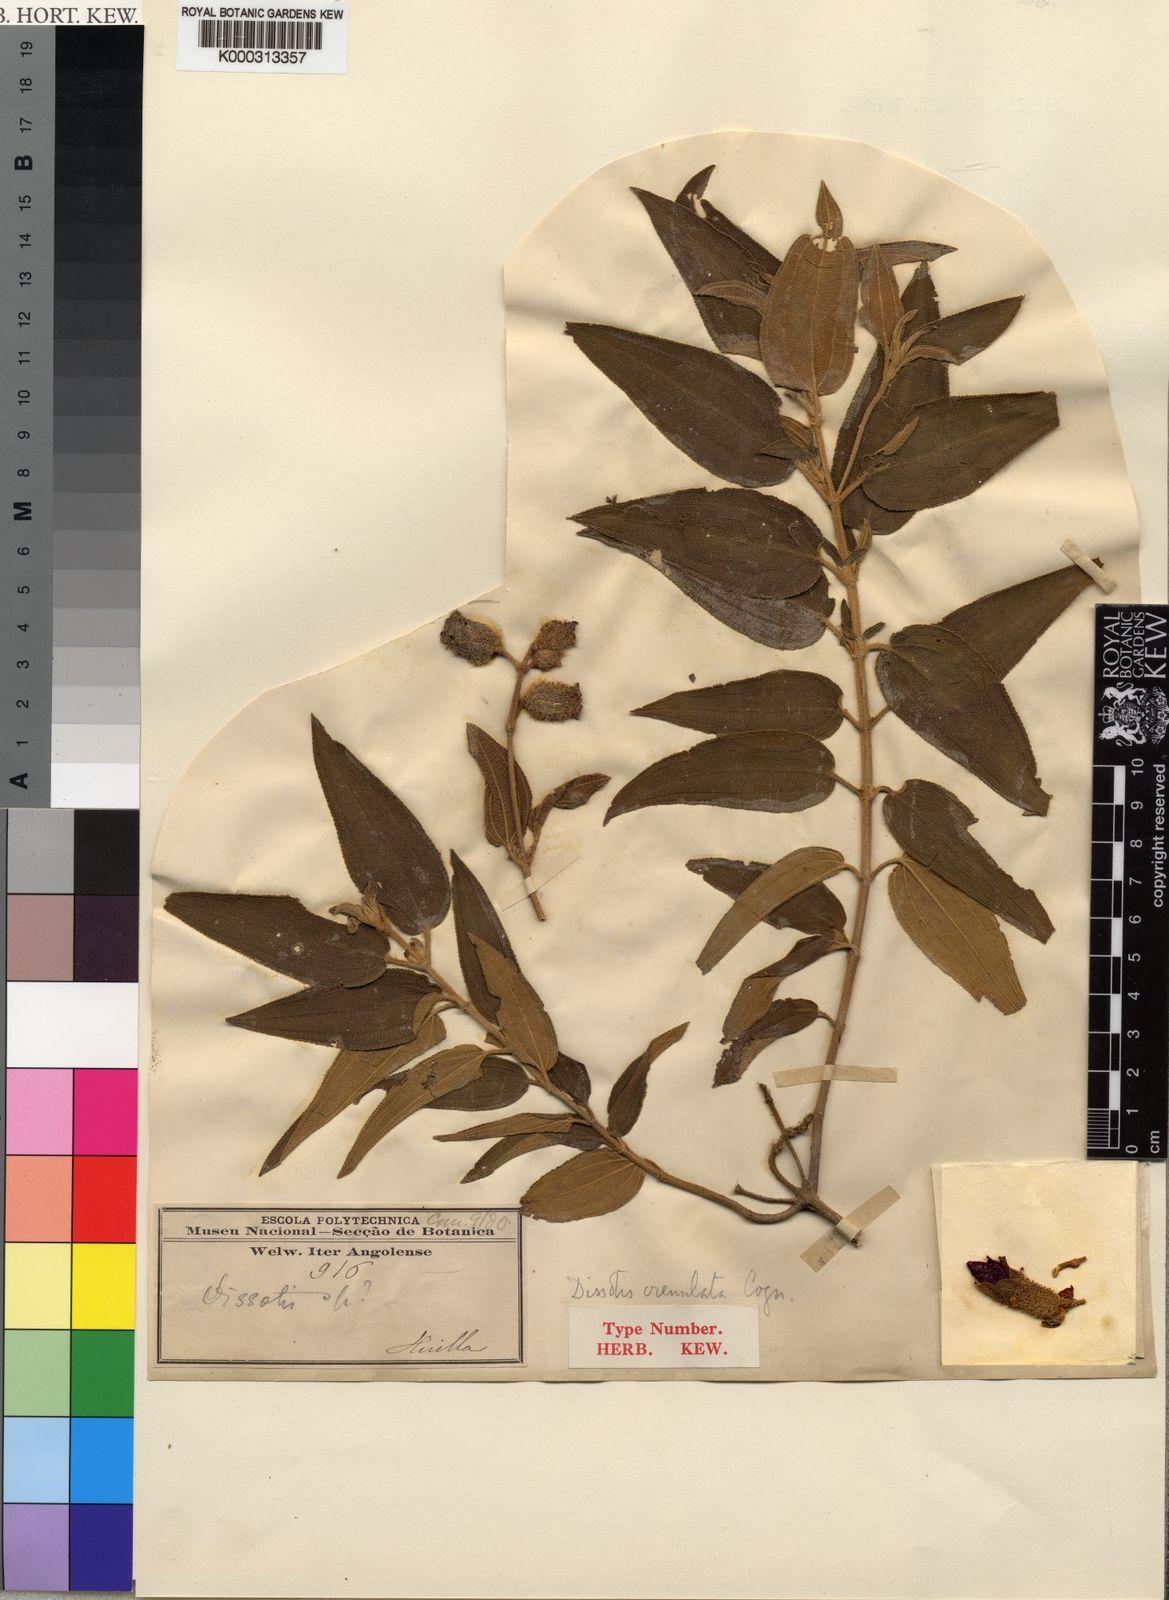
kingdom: Plantae
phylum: Tracheophyta
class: Magnoliopsida
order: Myrtales
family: Melastomataceae
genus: Rosettea
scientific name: Rosettea crenulata
